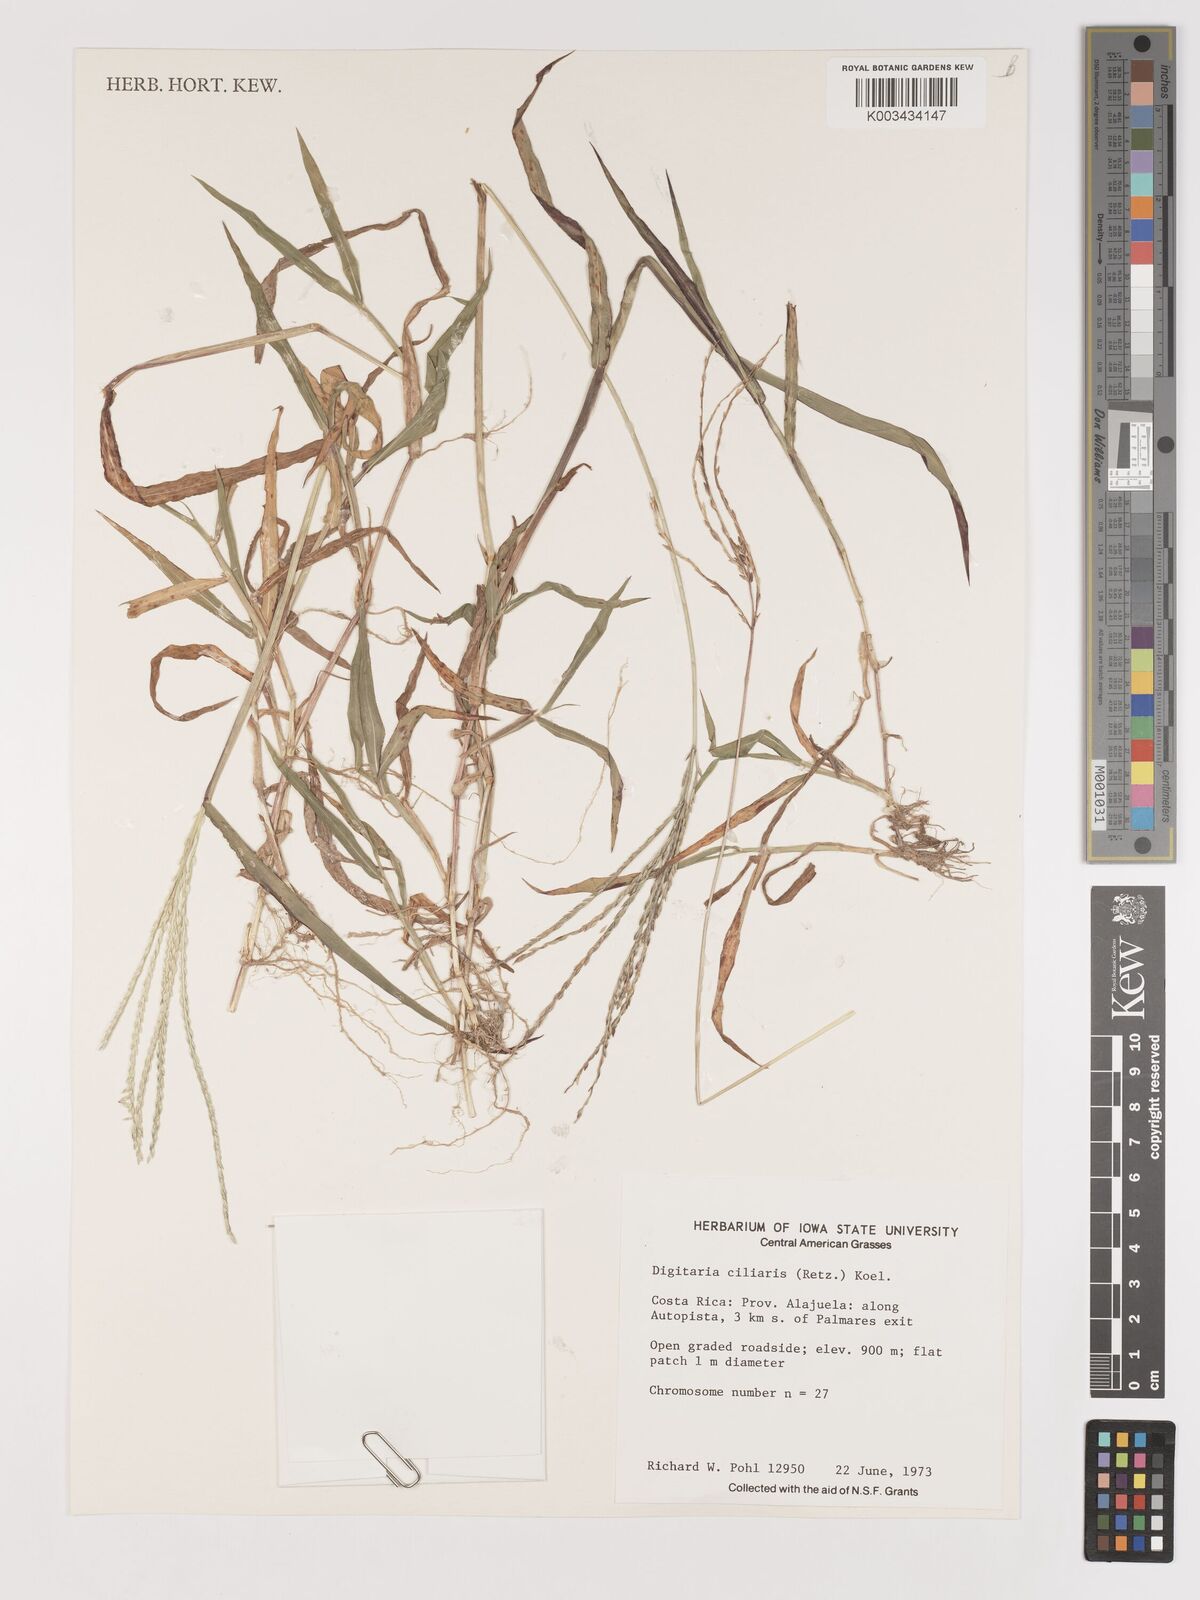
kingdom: Plantae
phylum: Tracheophyta
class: Liliopsida
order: Poales
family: Poaceae
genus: Digitaria
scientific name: Digitaria ciliaris
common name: Tropical finger-grass
